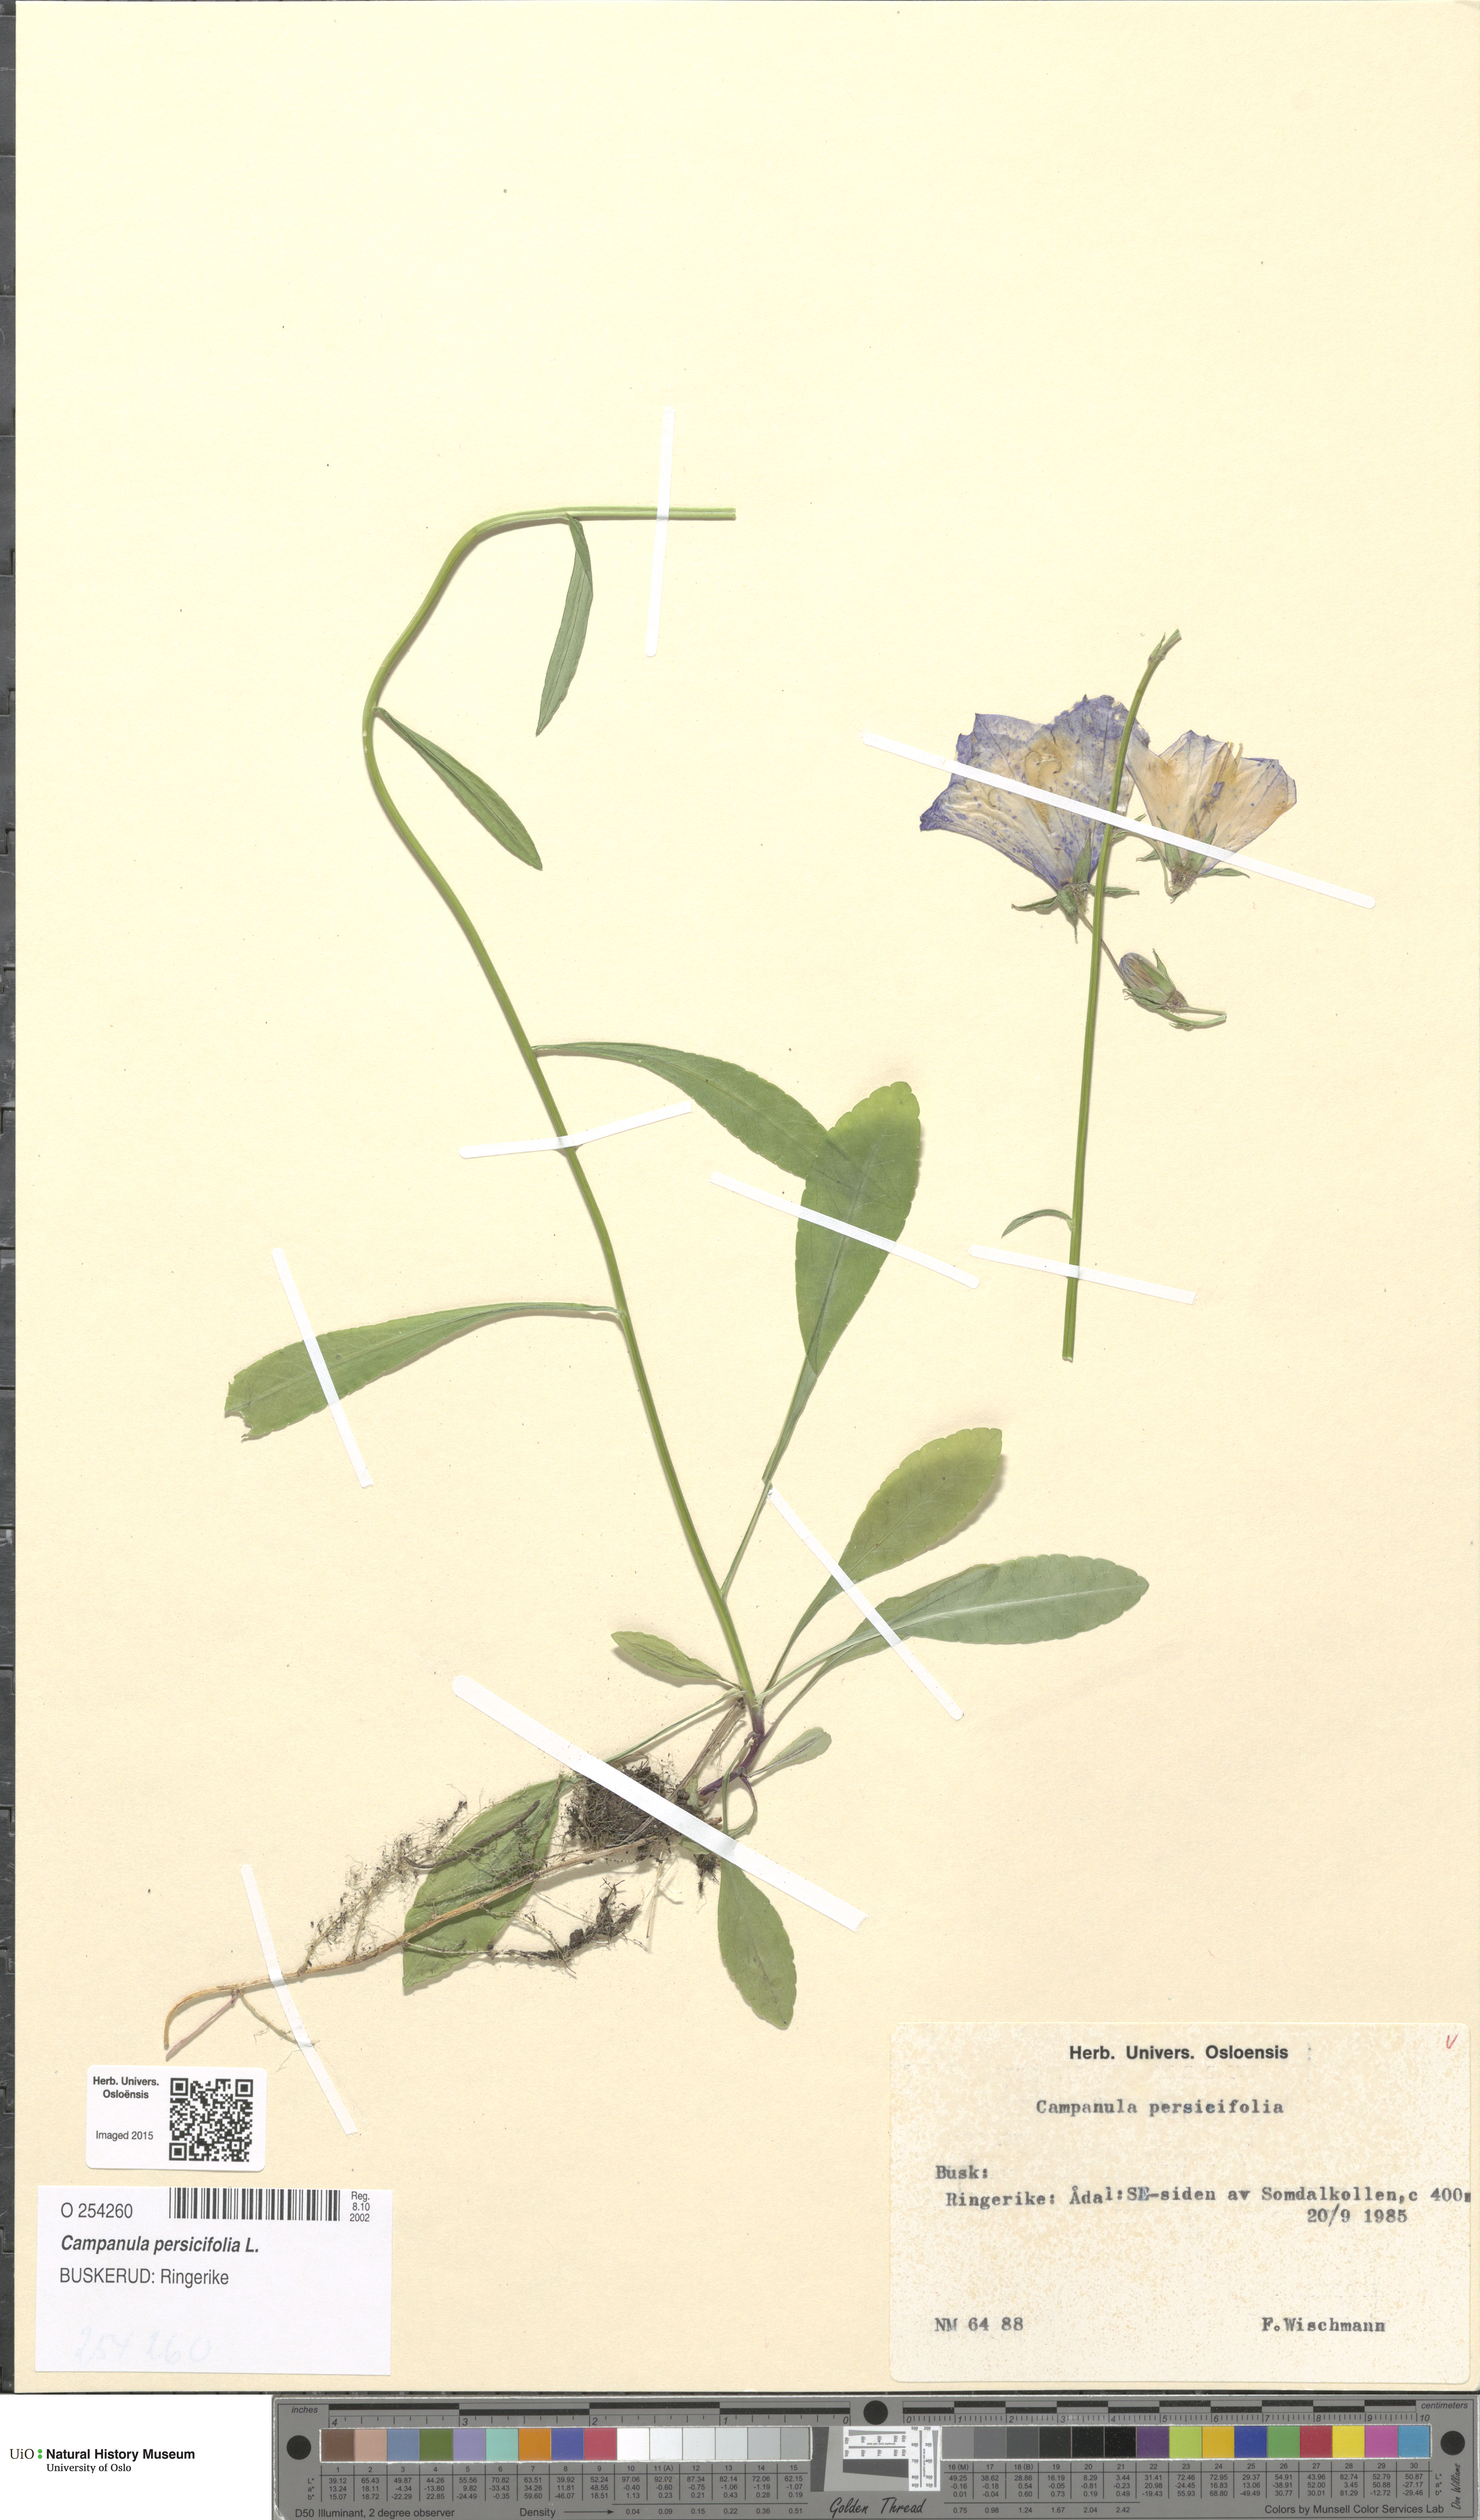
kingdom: Plantae
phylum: Tracheophyta
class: Magnoliopsida
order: Asterales
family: Campanulaceae
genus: Campanula
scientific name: Campanula persicifolia
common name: Peach-leaved bellflower
